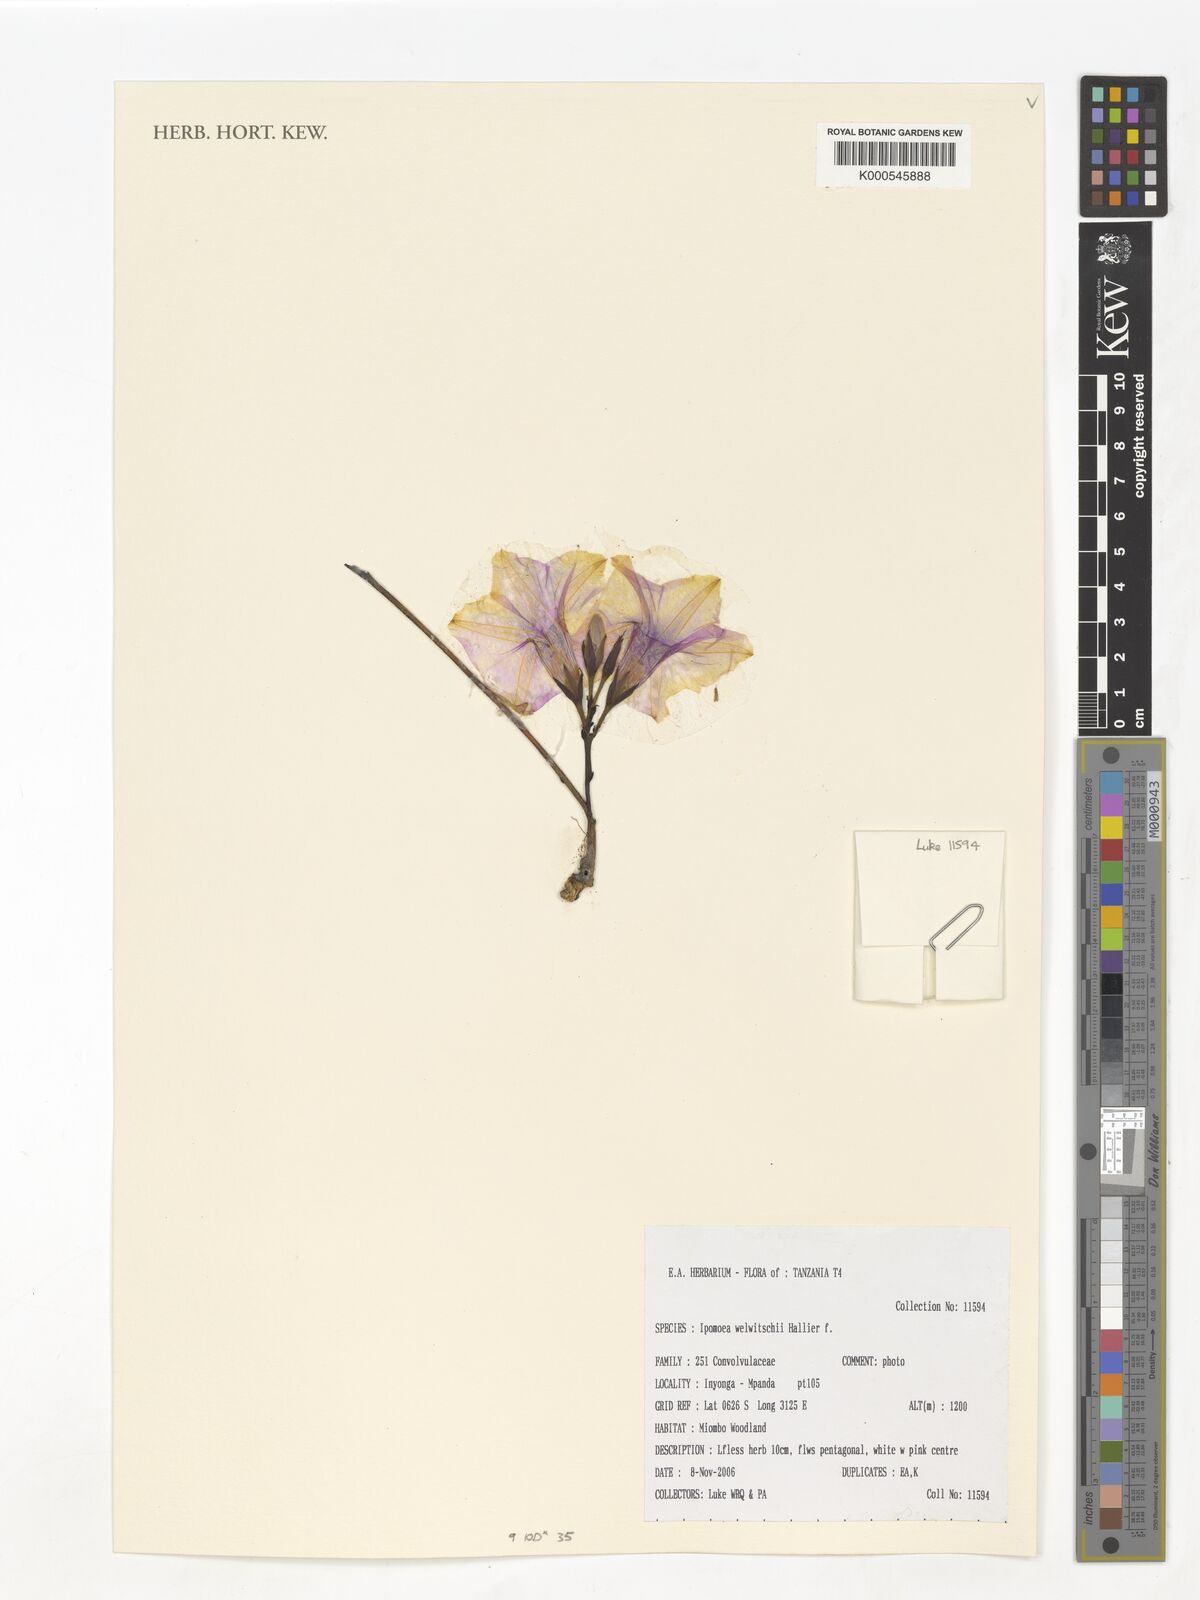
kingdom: Plantae
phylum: Tracheophyta
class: Magnoliopsida
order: Solanales
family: Convolvulaceae
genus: Ipomoea
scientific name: Ipomoea welwitschii
